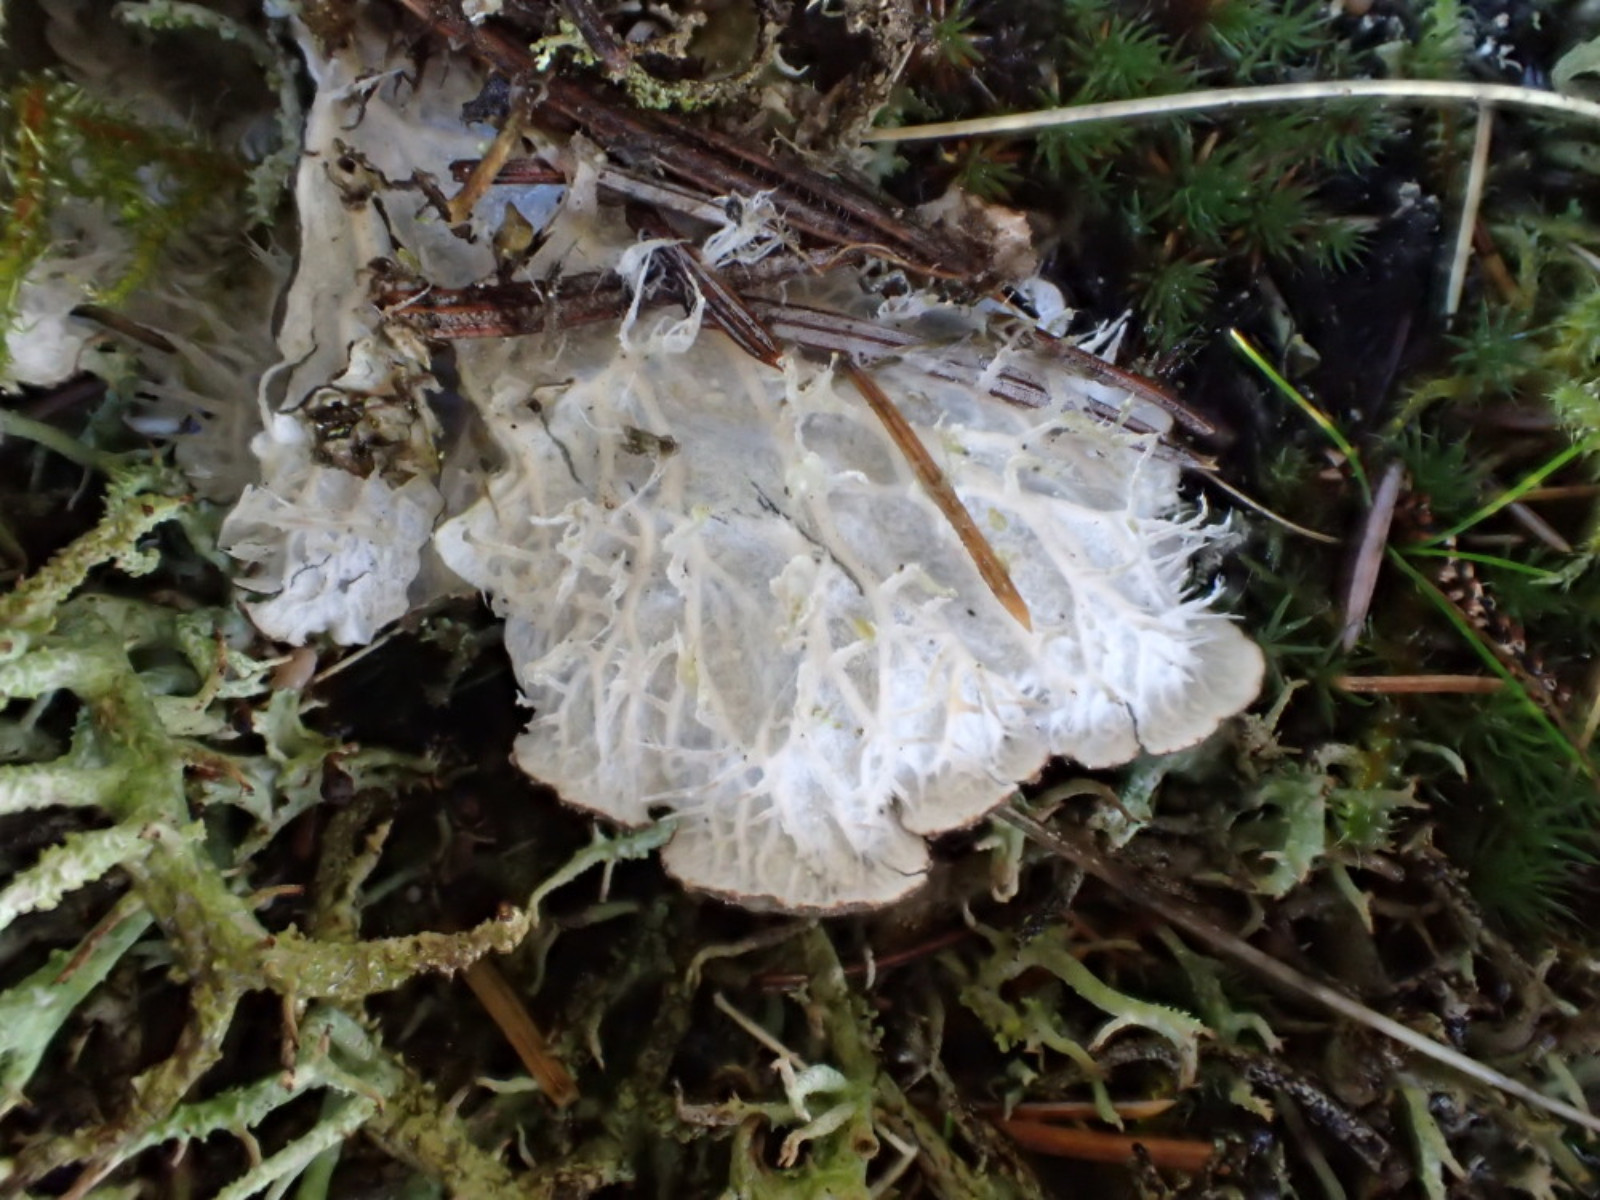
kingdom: Fungi
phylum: Ascomycota
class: Lecanoromycetes
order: Peltigerales
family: Peltigeraceae
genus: Peltigera
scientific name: Peltigera membranacea
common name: tynd skjoldlav
